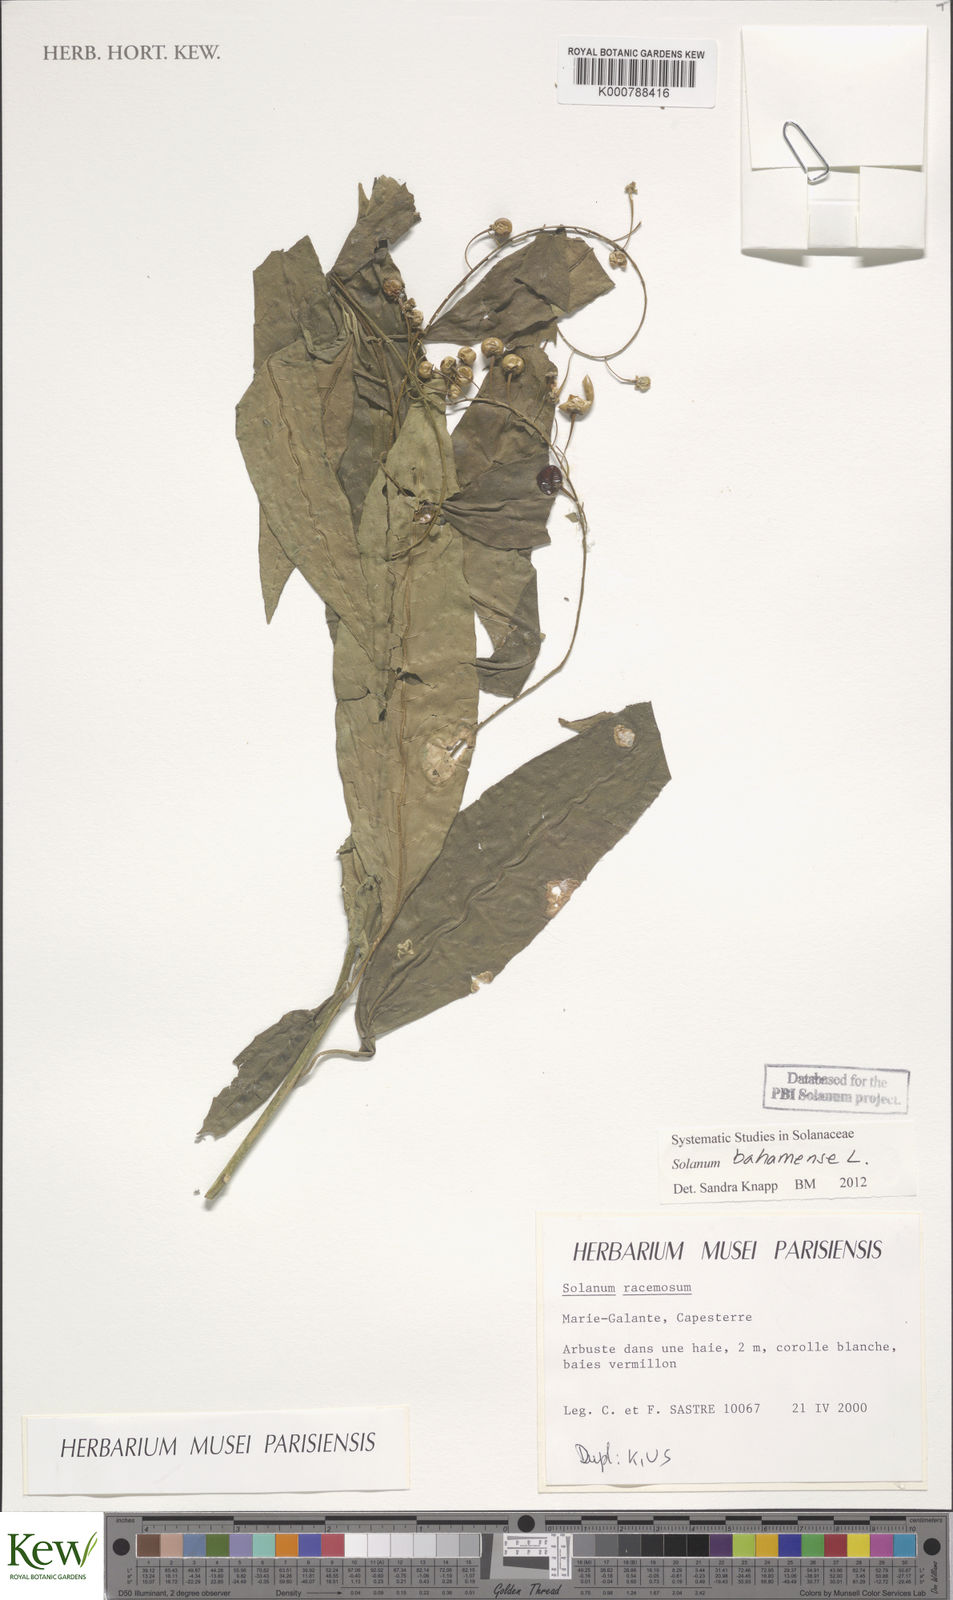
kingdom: Plantae
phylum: Tracheophyta
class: Magnoliopsida
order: Solanales
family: Solanaceae
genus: Solanum
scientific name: Solanum bahamense
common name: Canker-berry
